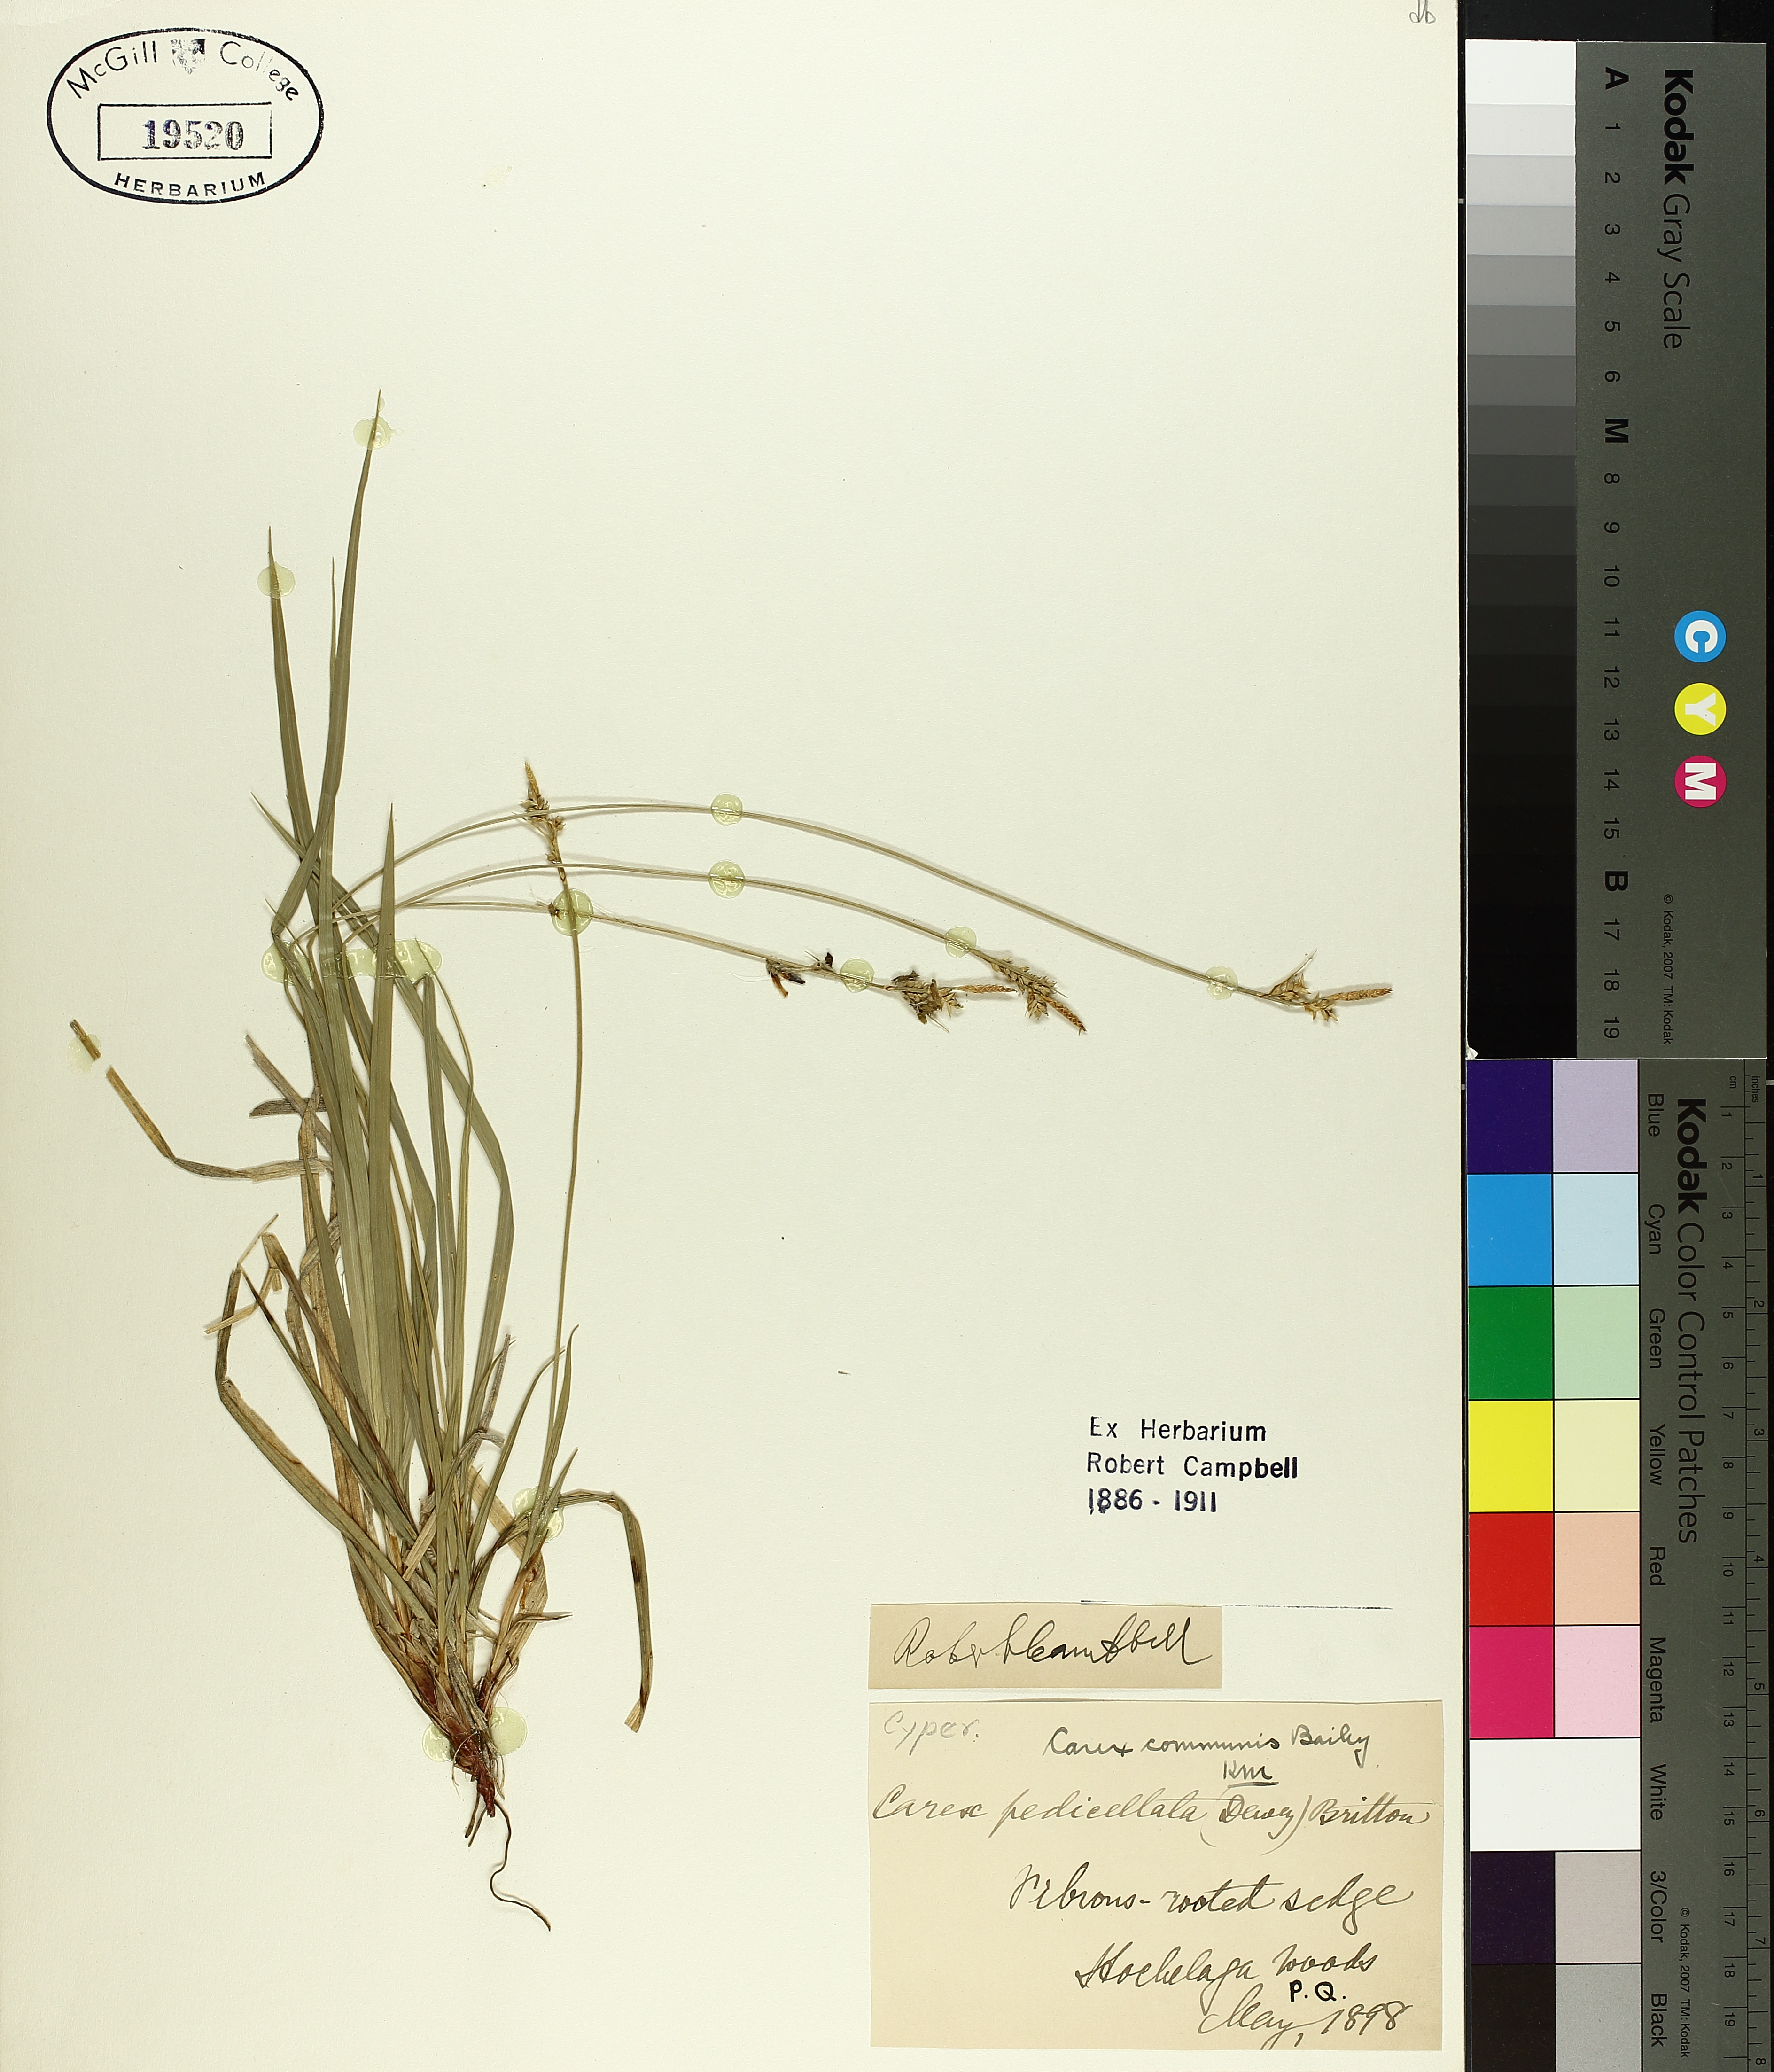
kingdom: Plantae
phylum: Tracheophyta
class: Liliopsida
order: Poales
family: Cyperaceae
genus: Carex
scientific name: Carex communis
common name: Colonial oak sedge
